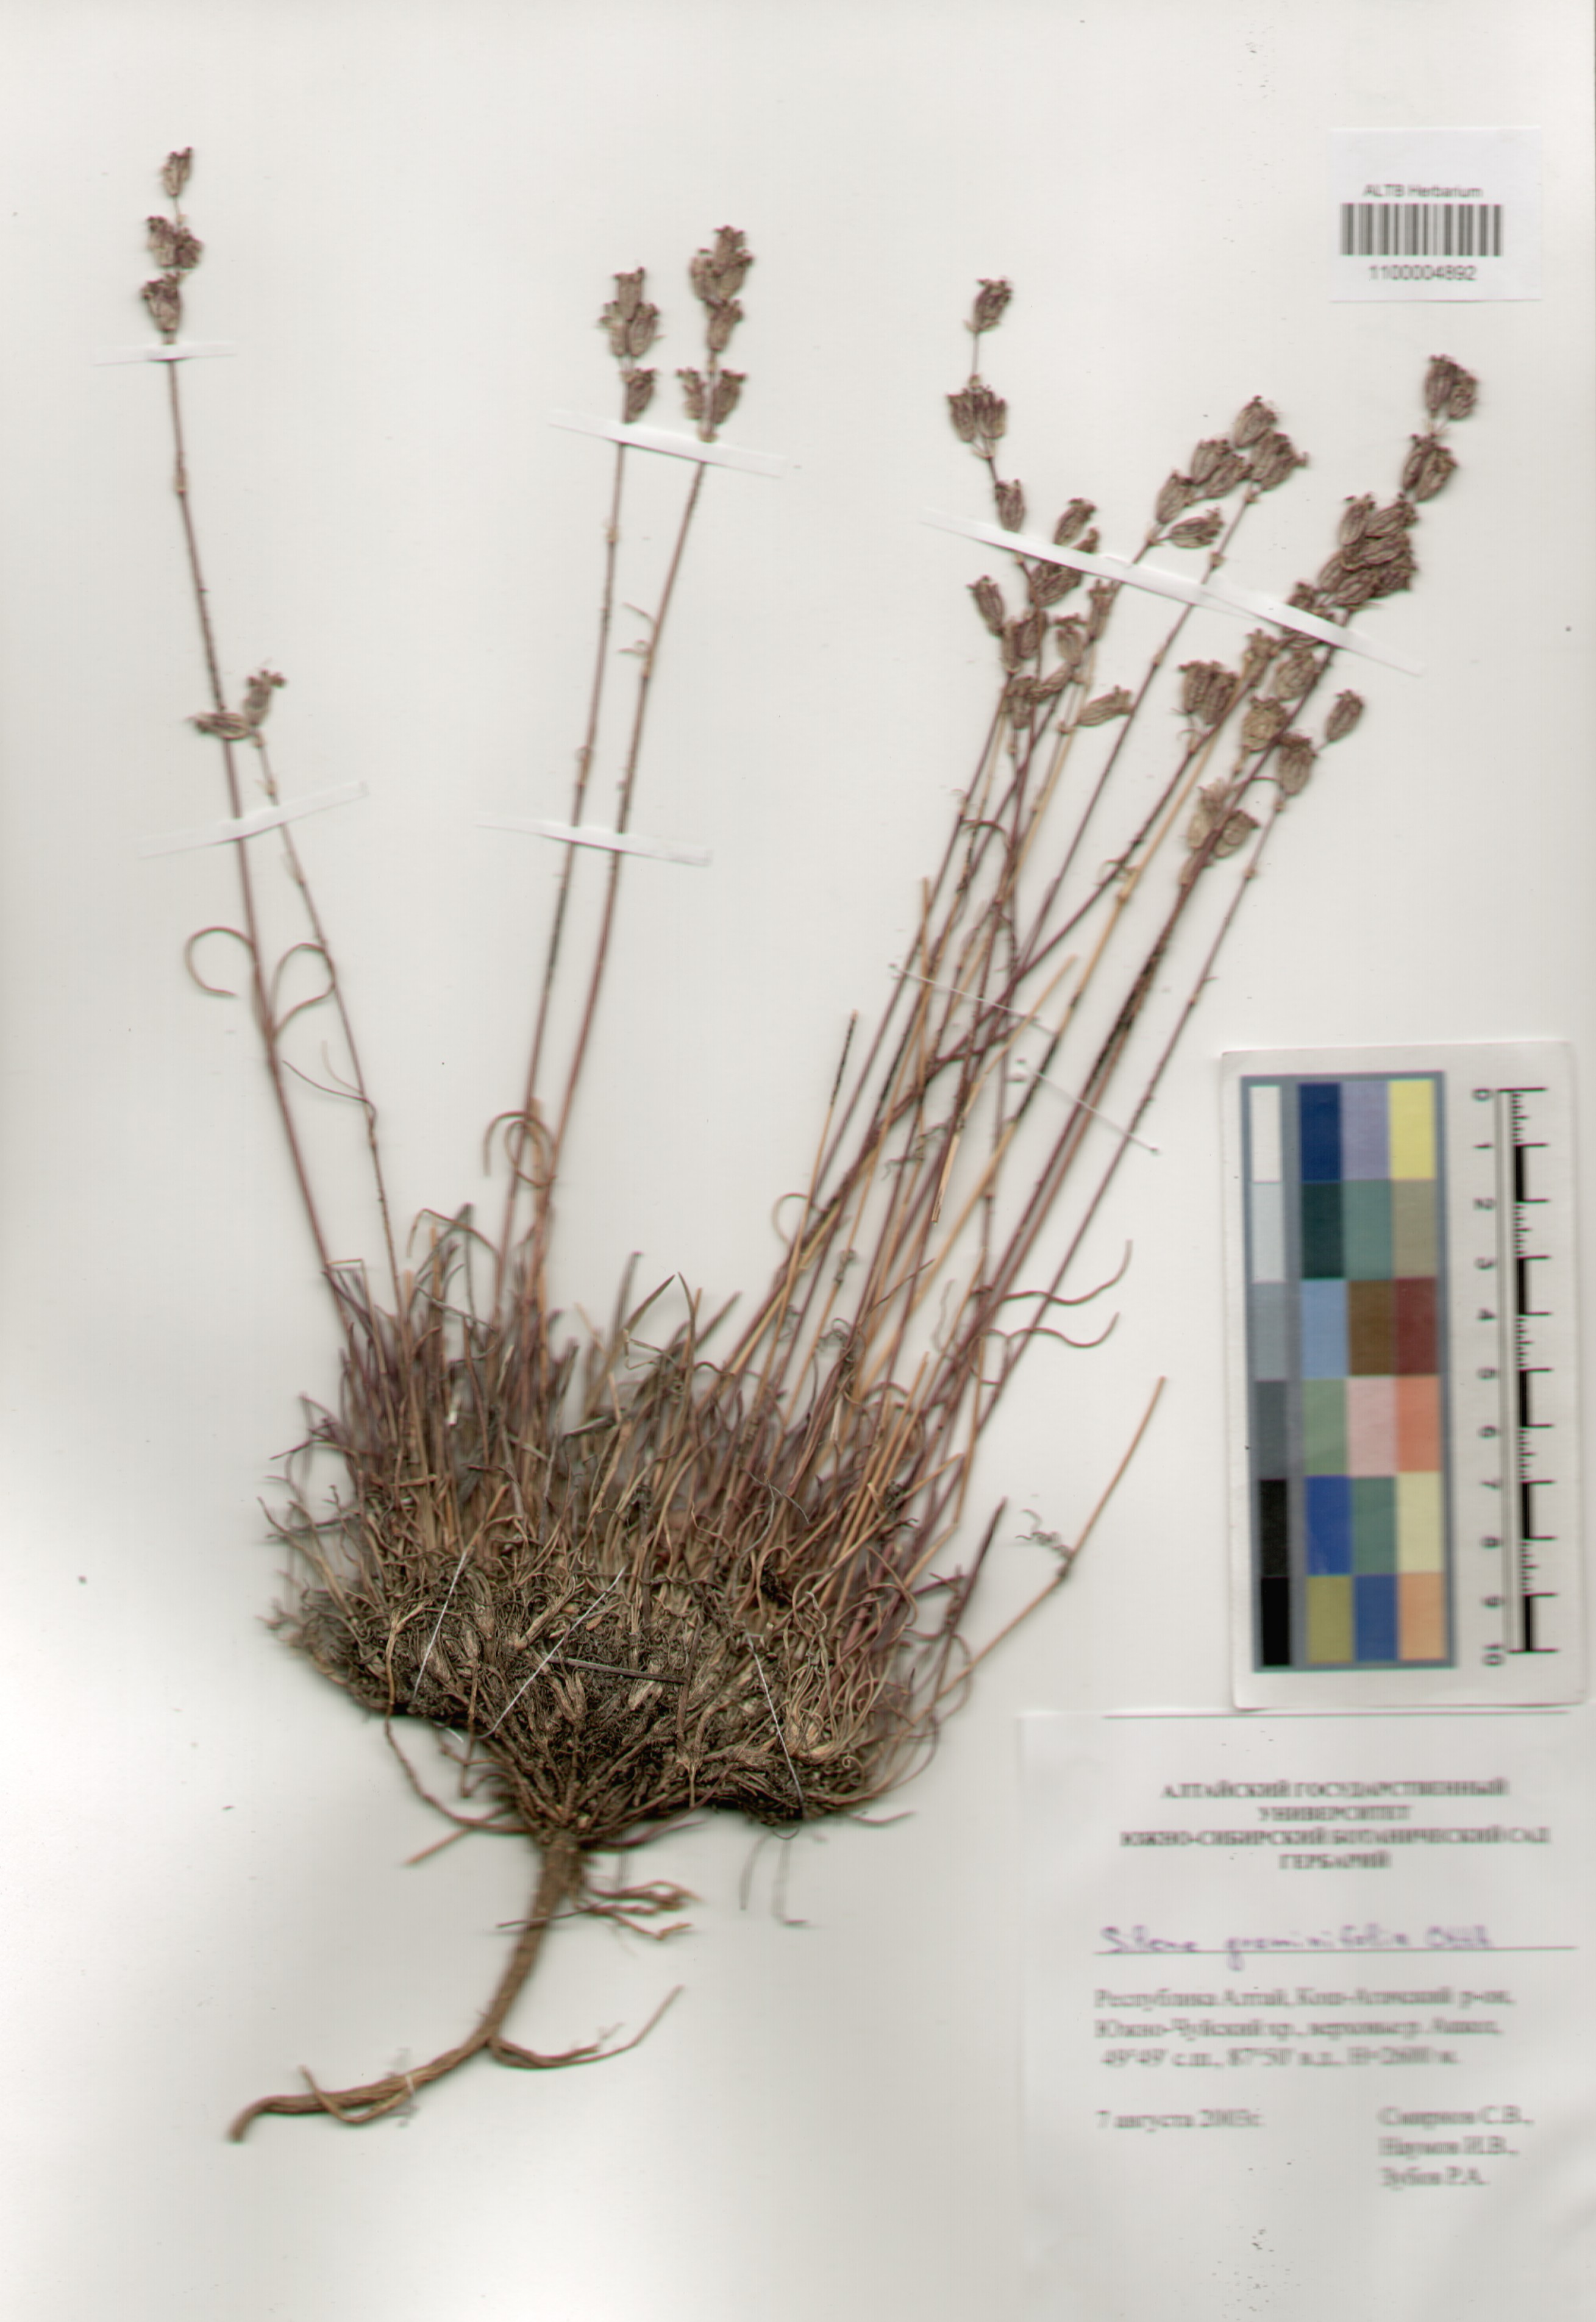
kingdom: Plantae
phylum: Tracheophyta
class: Magnoliopsida
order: Caryophyllales
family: Caryophyllaceae
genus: Silene
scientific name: Silene graminifolia
